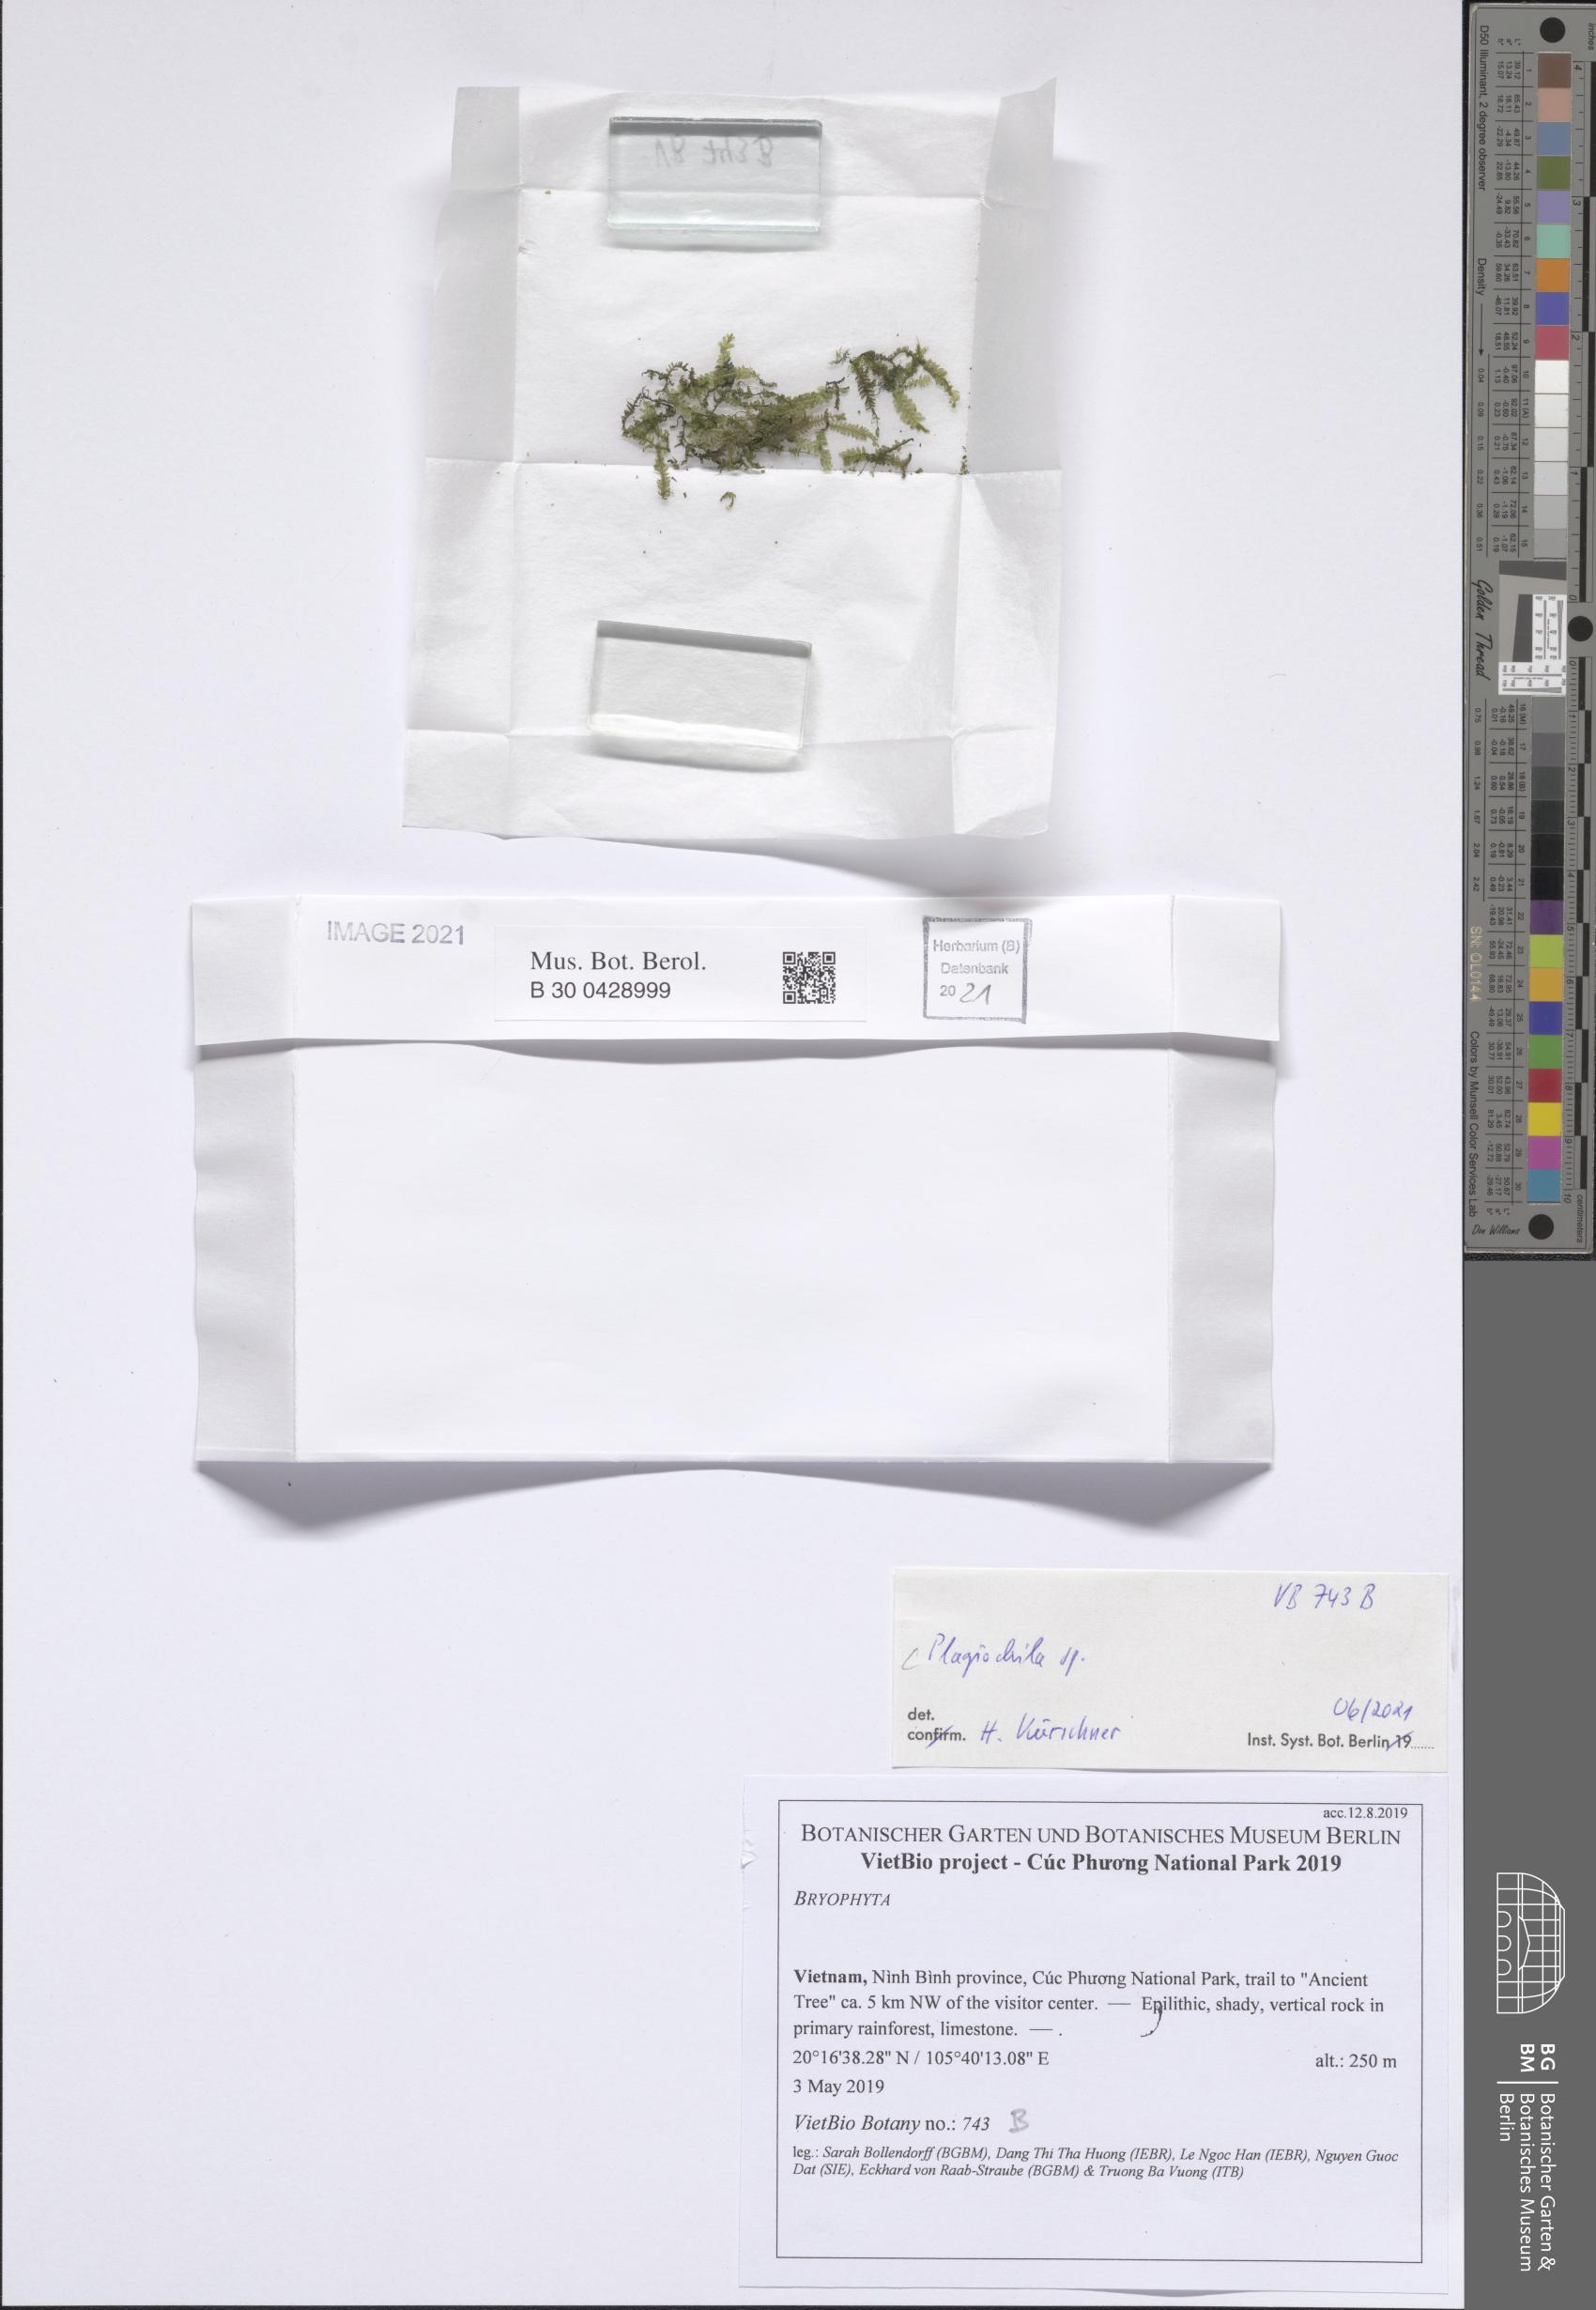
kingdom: Plantae
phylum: Marchantiophyta
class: Jungermanniopsida
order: Jungermanniales
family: Plagiochilaceae
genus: Plagiochila
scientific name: Plagiochila
